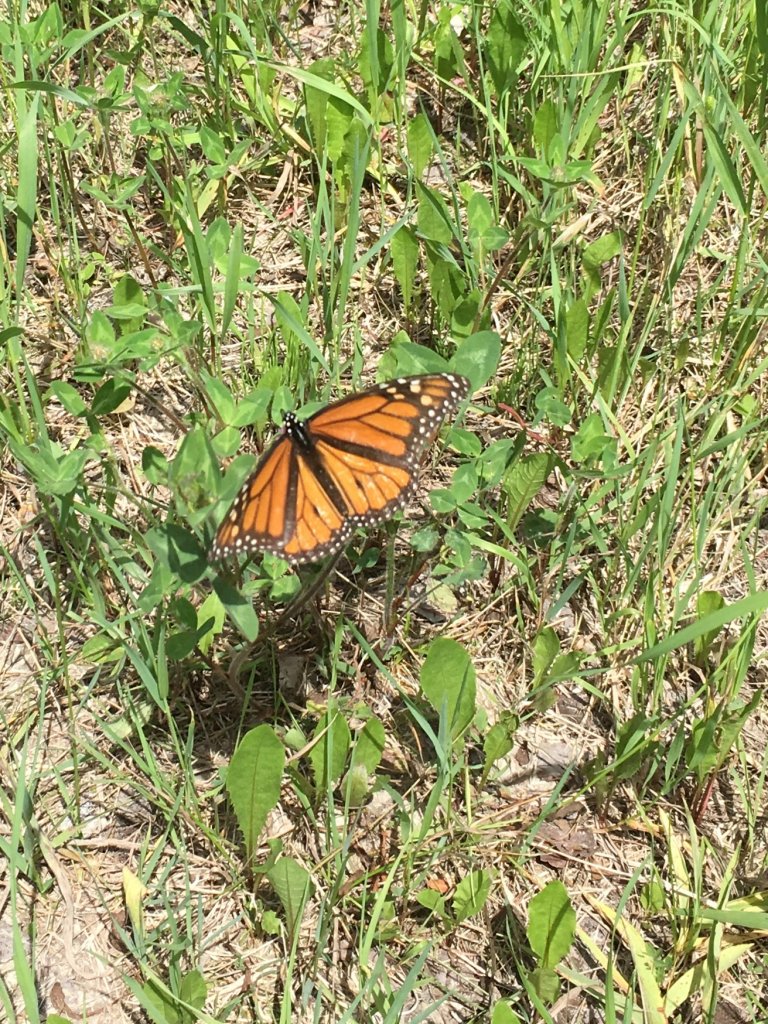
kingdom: Animalia
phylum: Arthropoda
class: Insecta
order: Lepidoptera
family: Nymphalidae
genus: Danaus
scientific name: Danaus plexippus
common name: Monarch
